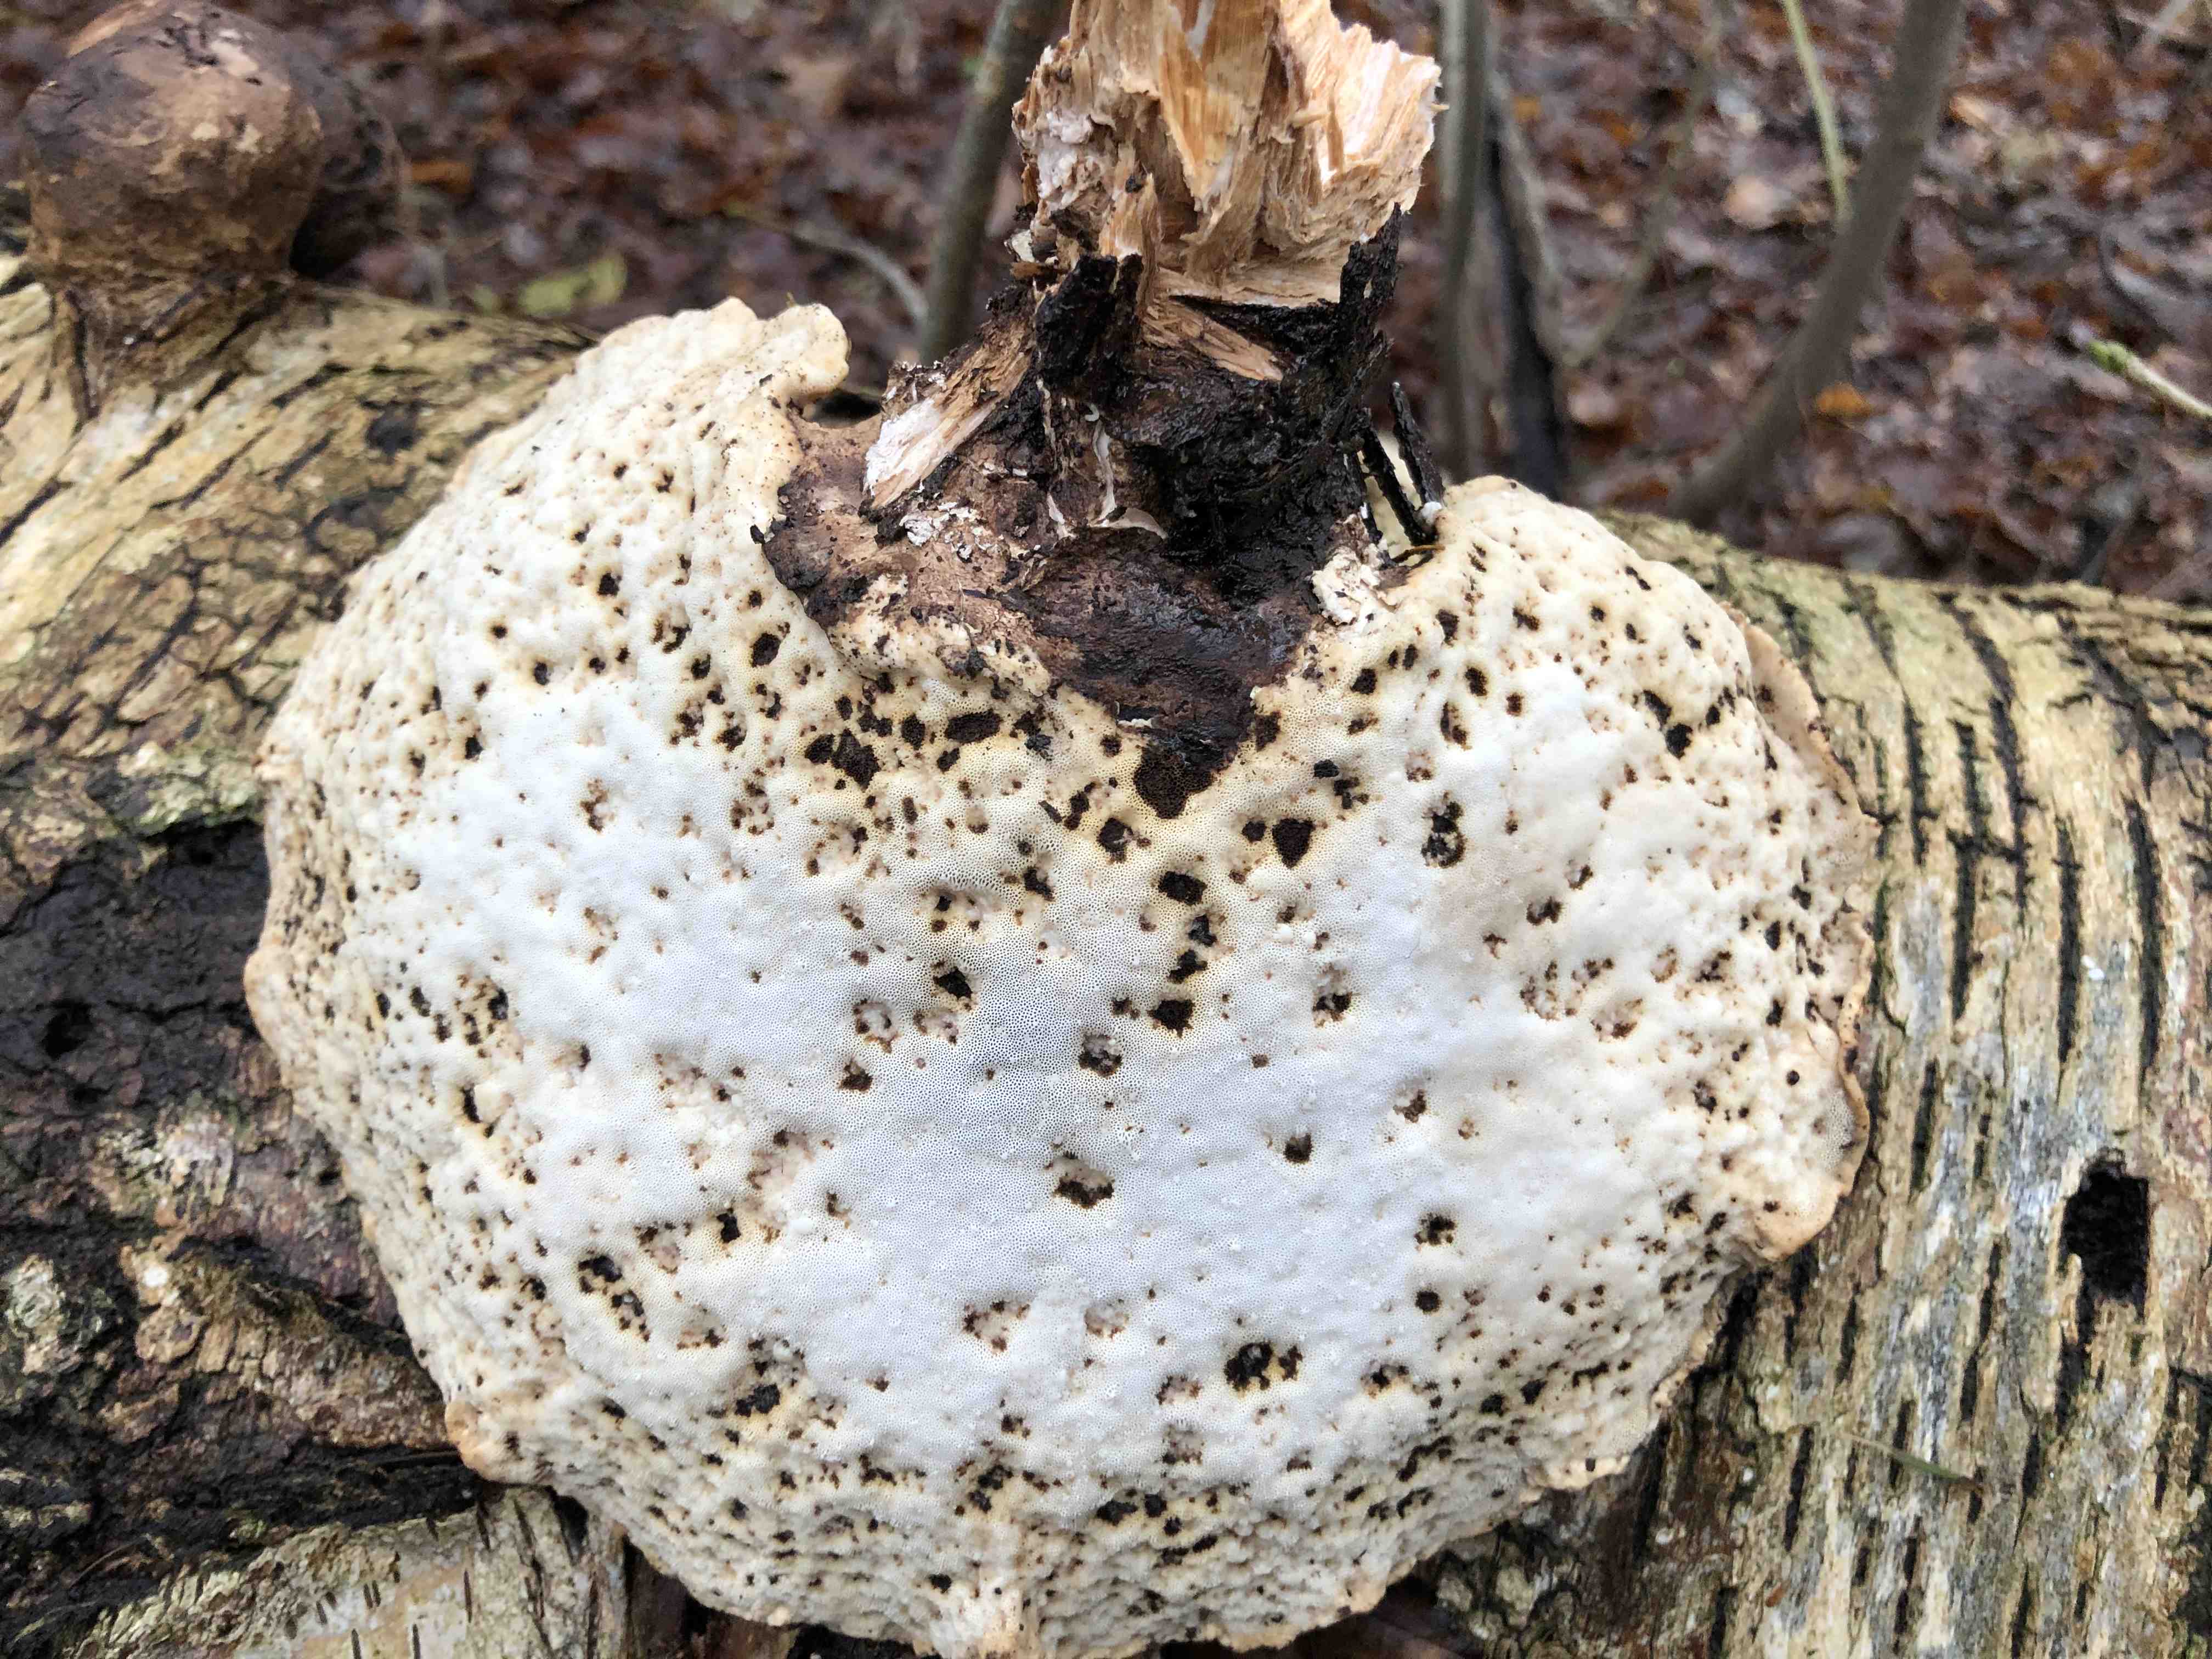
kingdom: Fungi
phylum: Basidiomycota
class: Agaricomycetes
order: Polyporales
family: Fomitopsidaceae
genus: Fomitopsis
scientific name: Fomitopsis betulina
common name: birkeporesvamp
